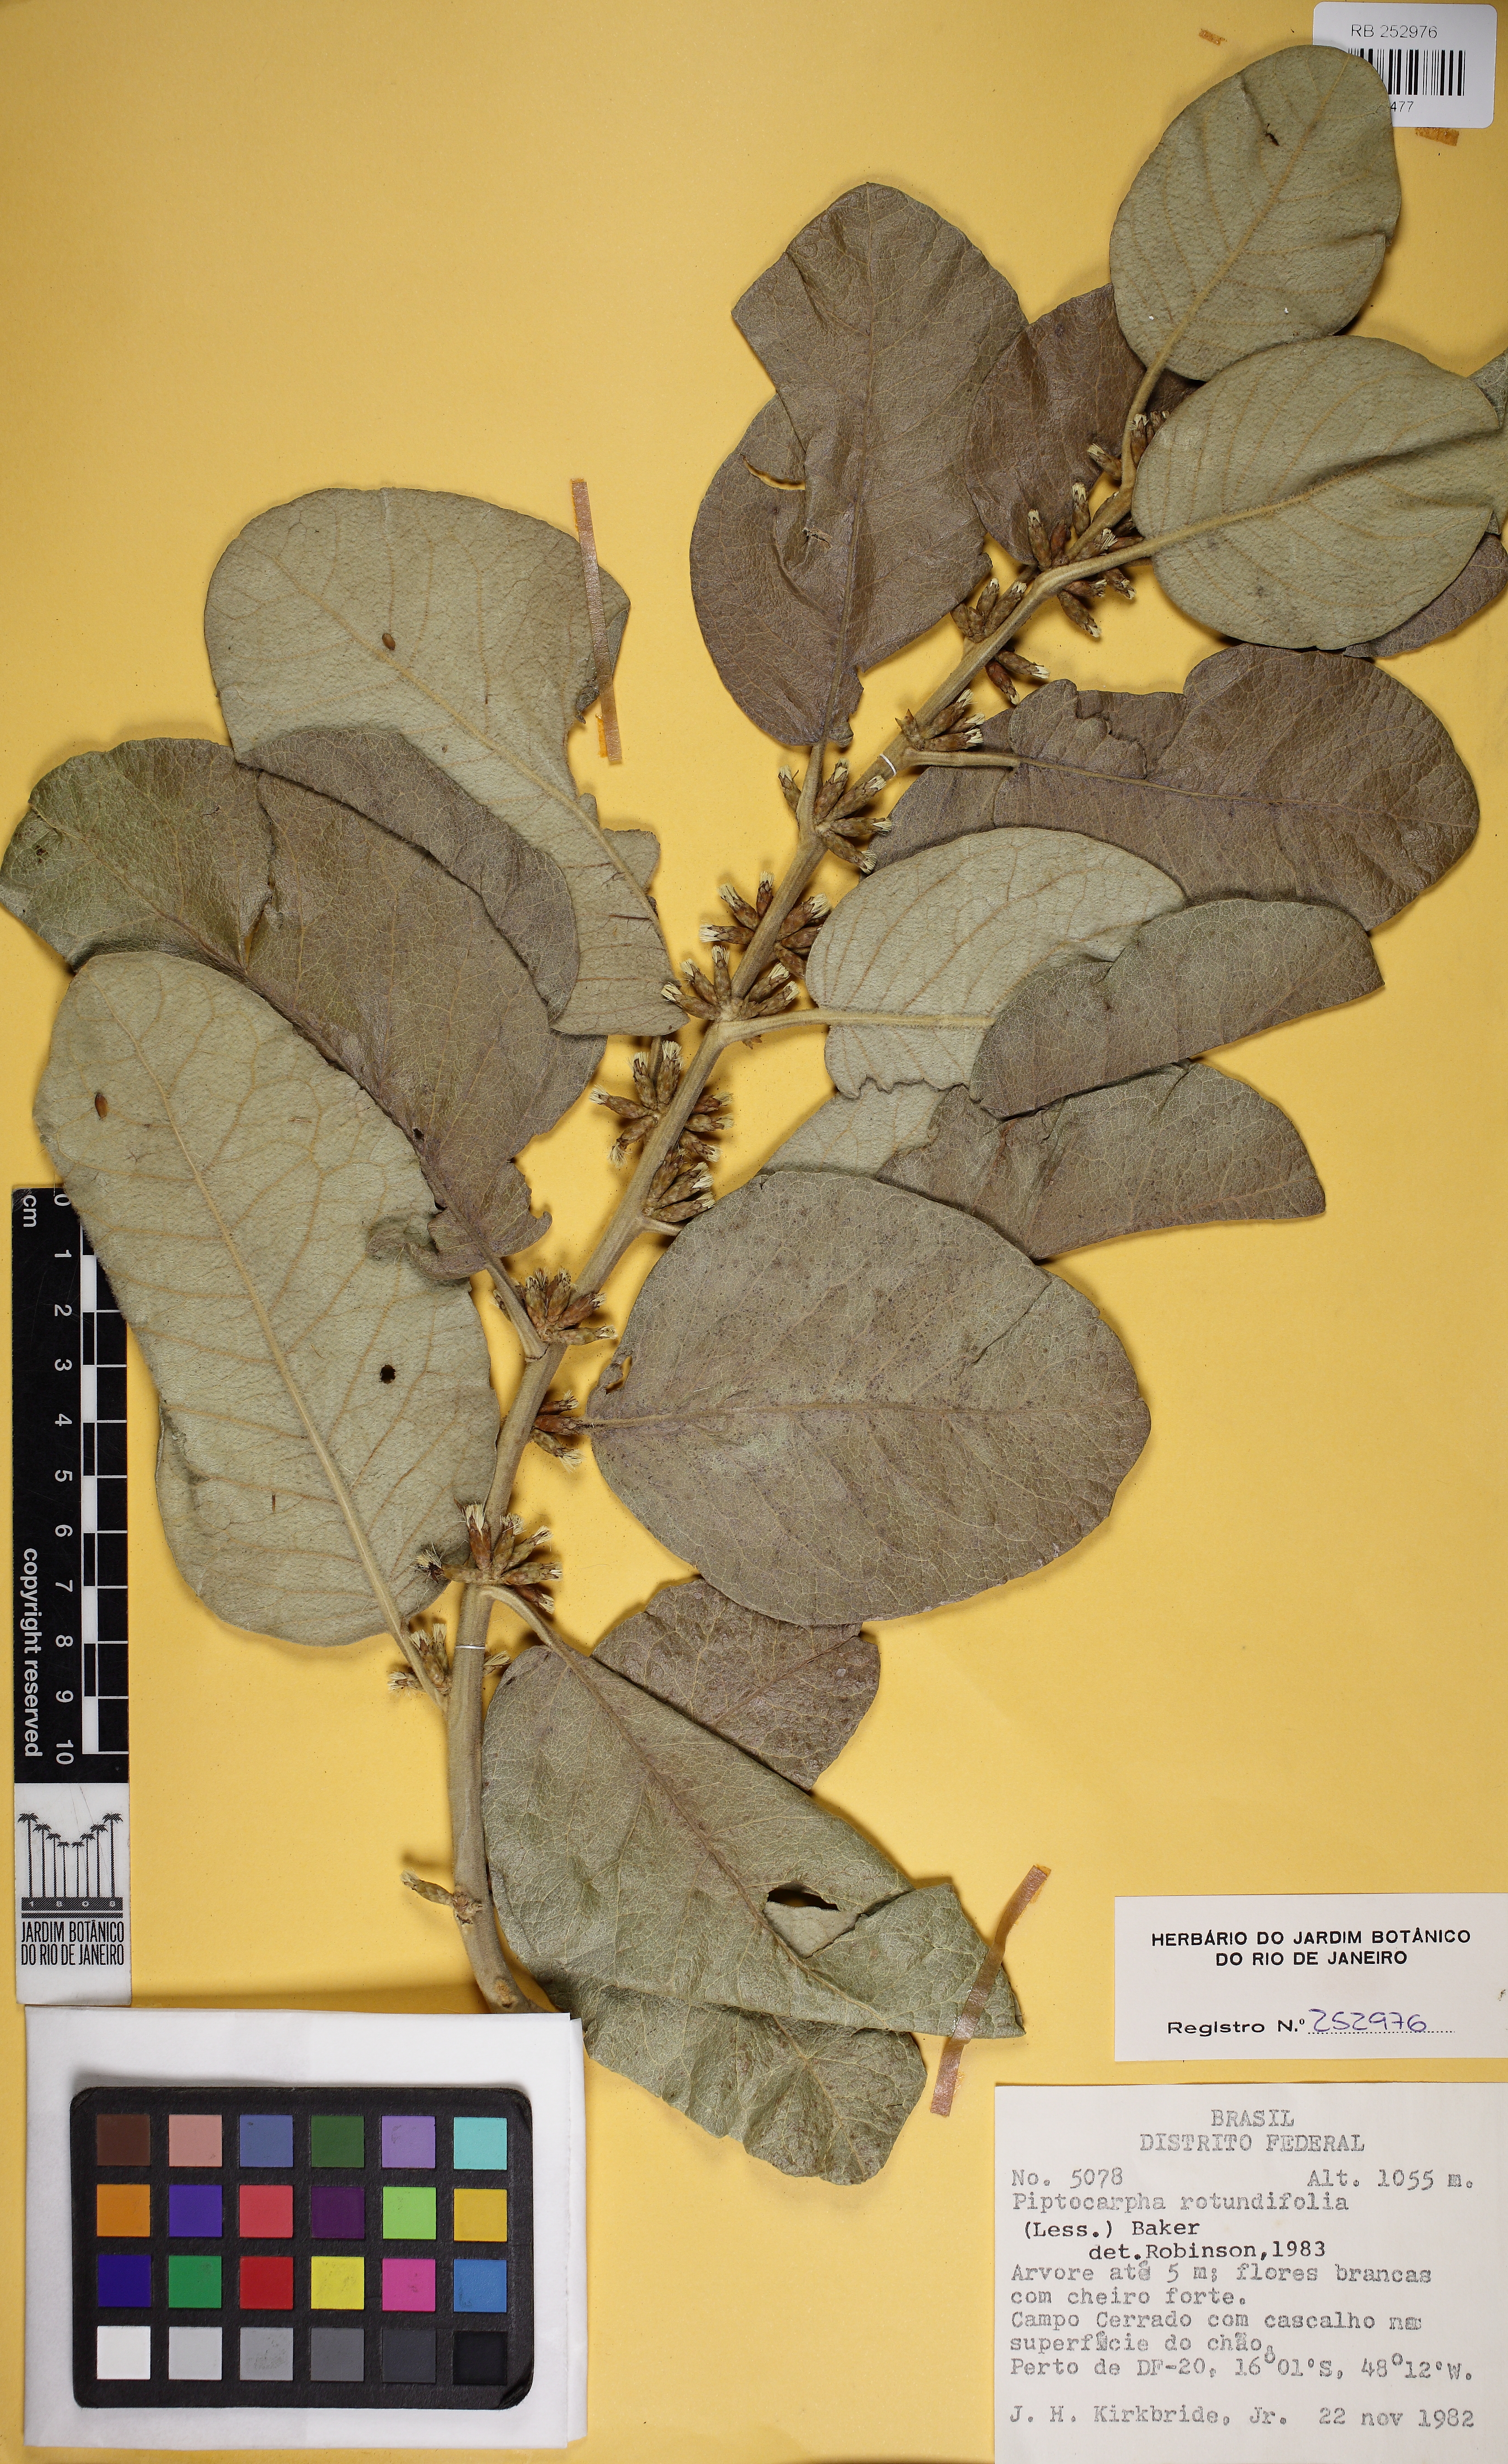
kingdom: Plantae
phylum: Tracheophyta
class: Magnoliopsida
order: Asterales
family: Asteraceae
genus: Piptocarpha
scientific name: Piptocarpha rotundifolia
